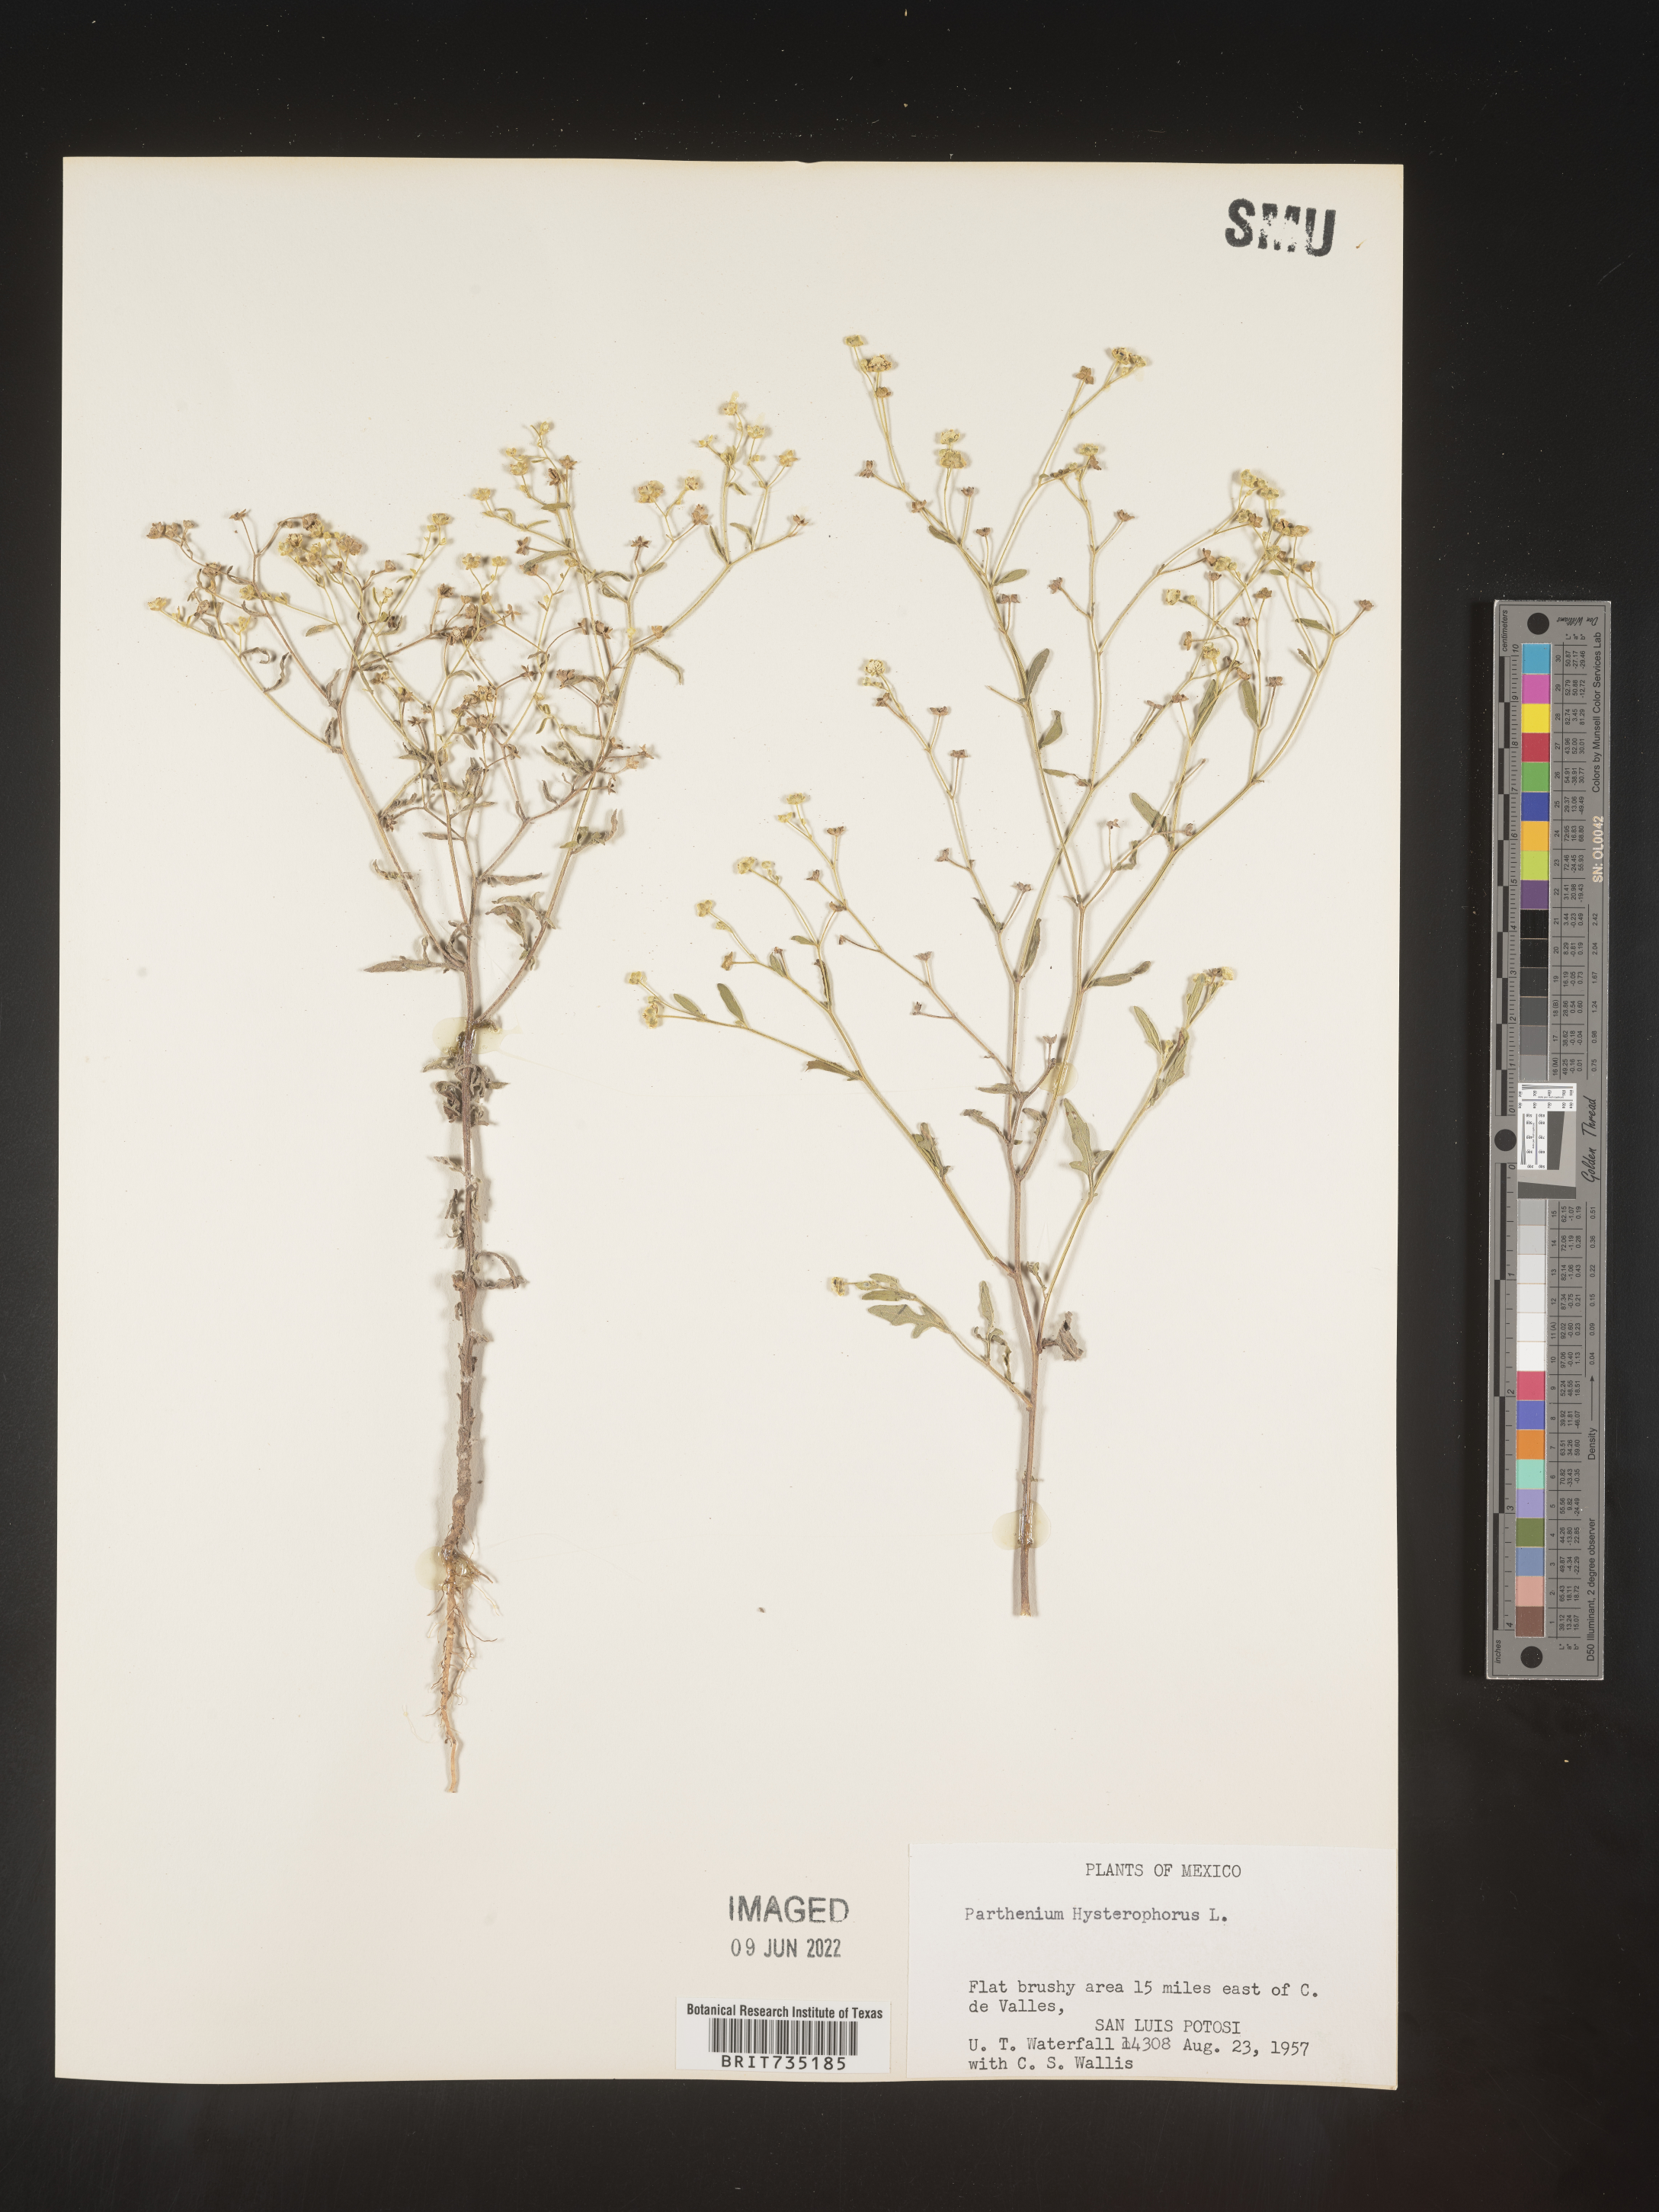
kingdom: Plantae
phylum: Tracheophyta
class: Magnoliopsida
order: Asterales
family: Asteraceae
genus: Parthenium
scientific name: Parthenium hysterophorus
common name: Santa maria feverfew
